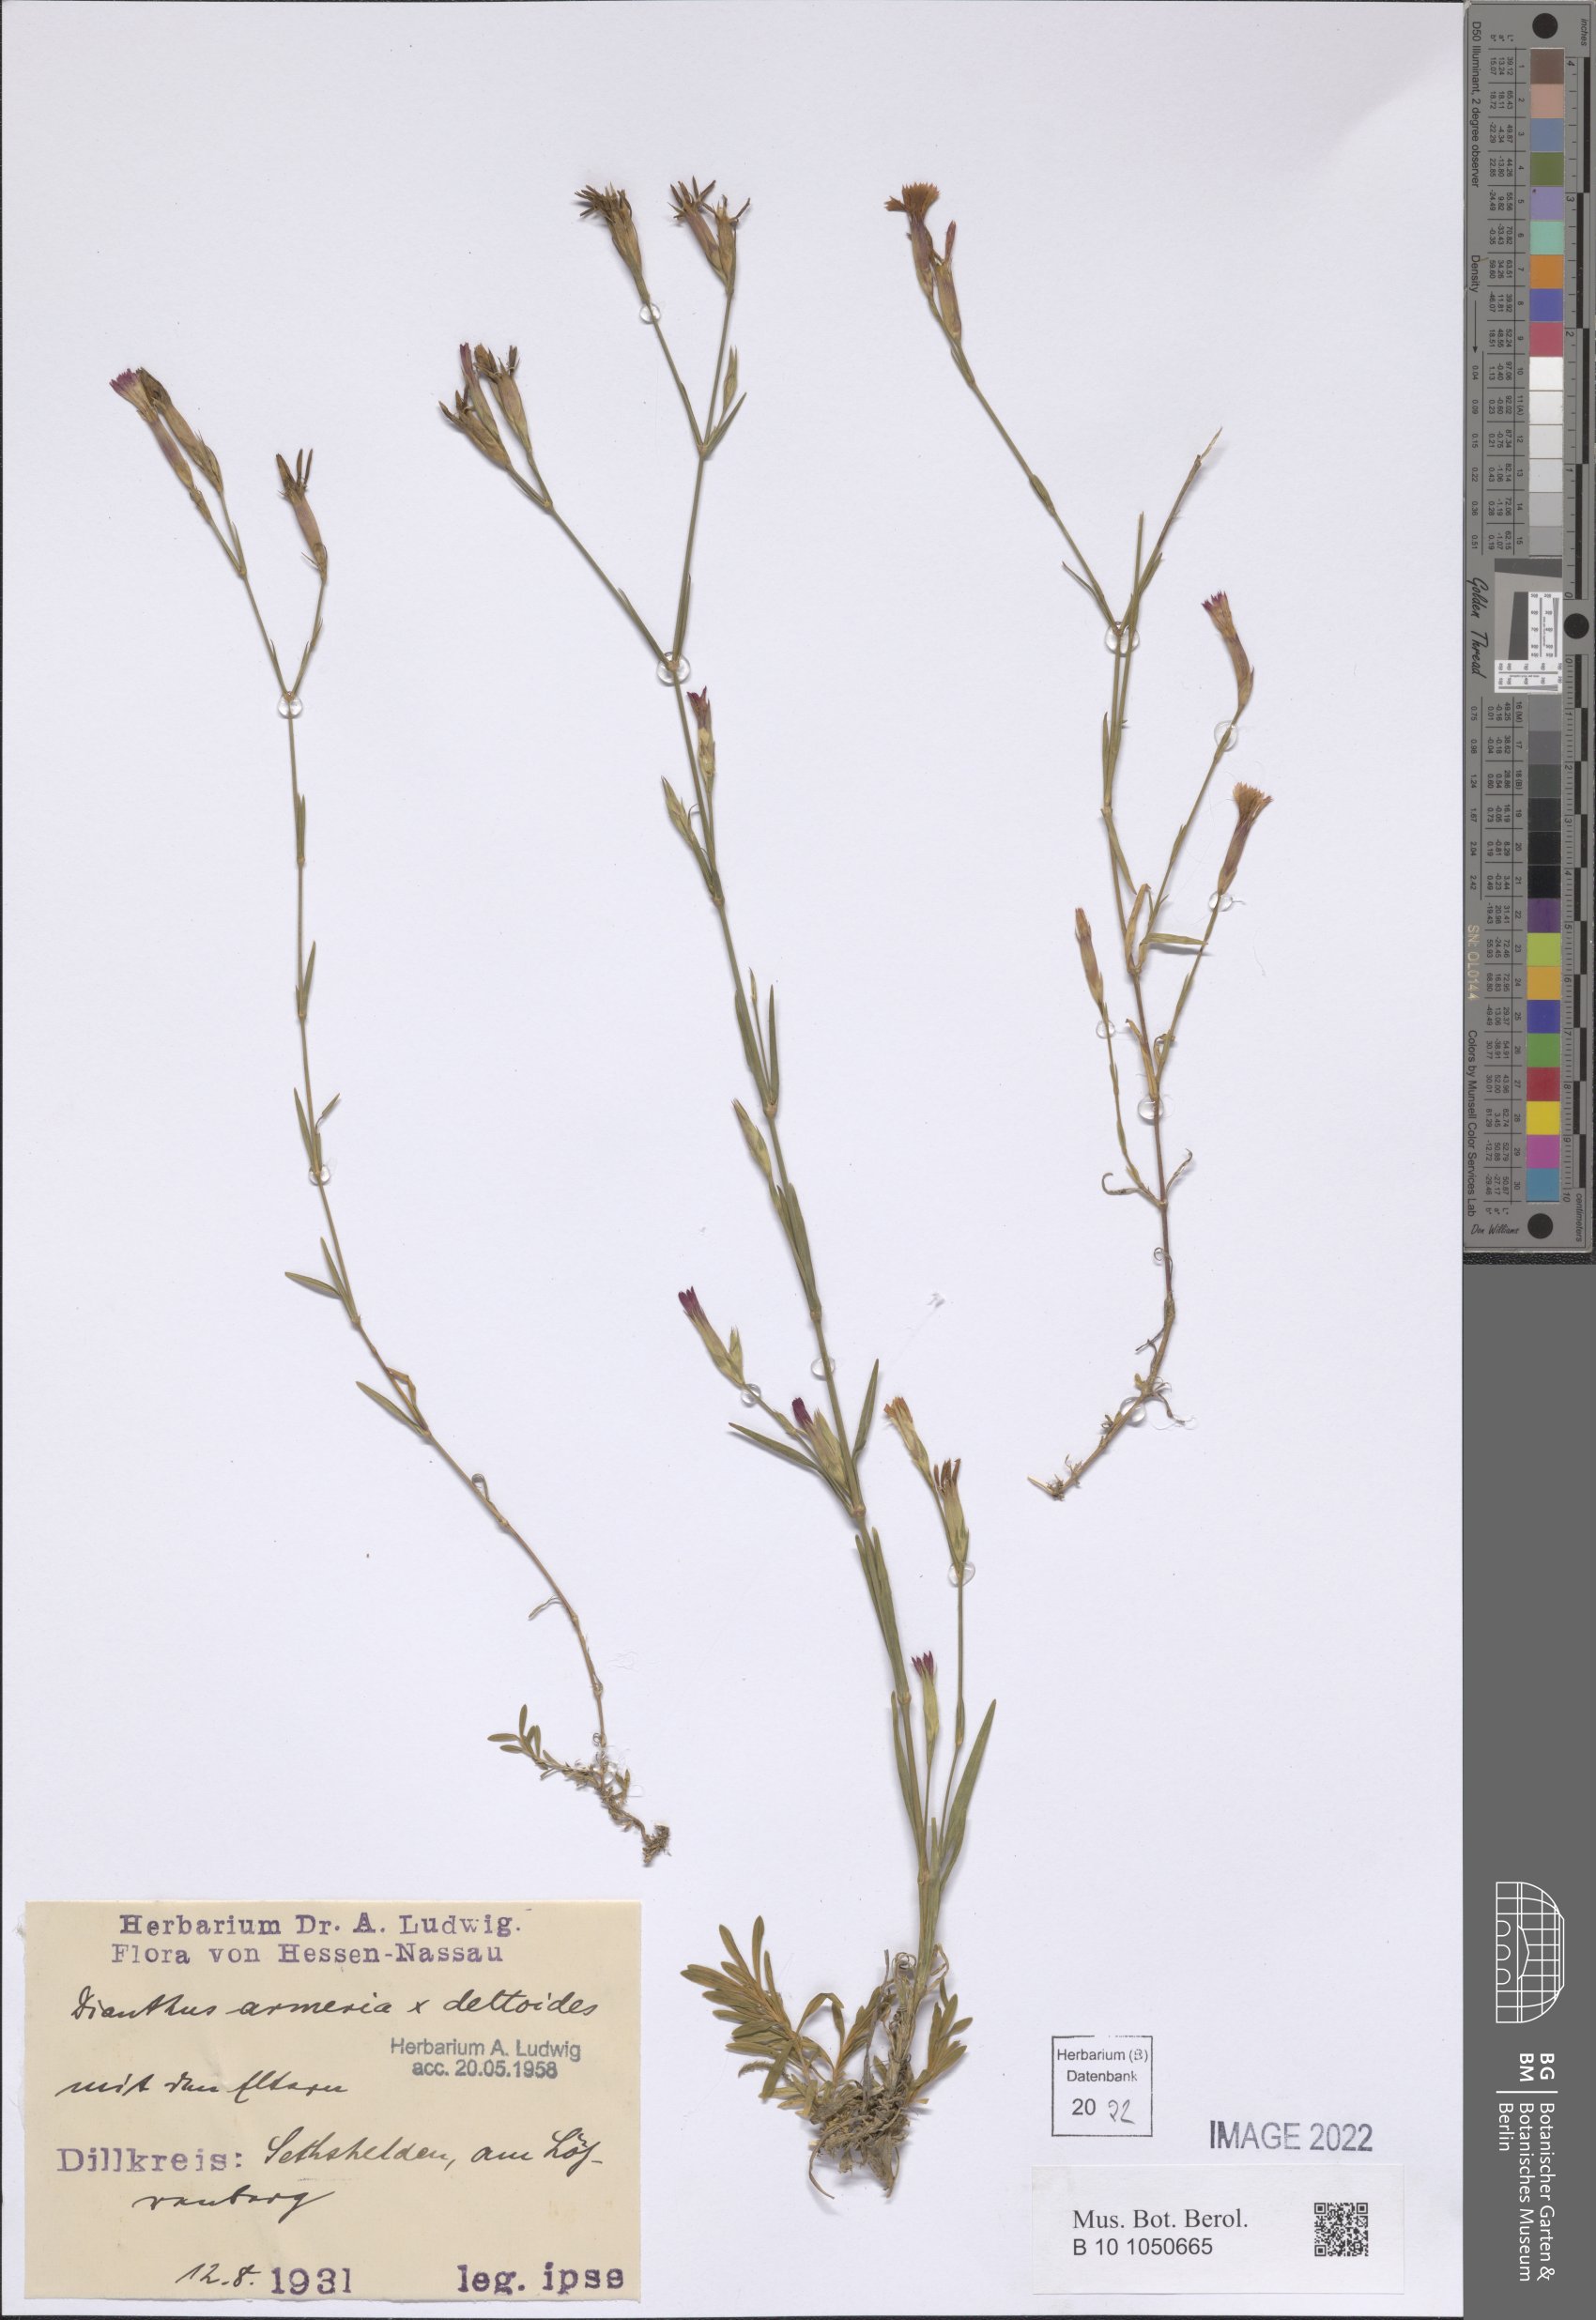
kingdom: Plantae
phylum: Tracheophyta
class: Magnoliopsida
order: Caryophyllales
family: Caryophyllaceae
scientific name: Caryophyllaceae
